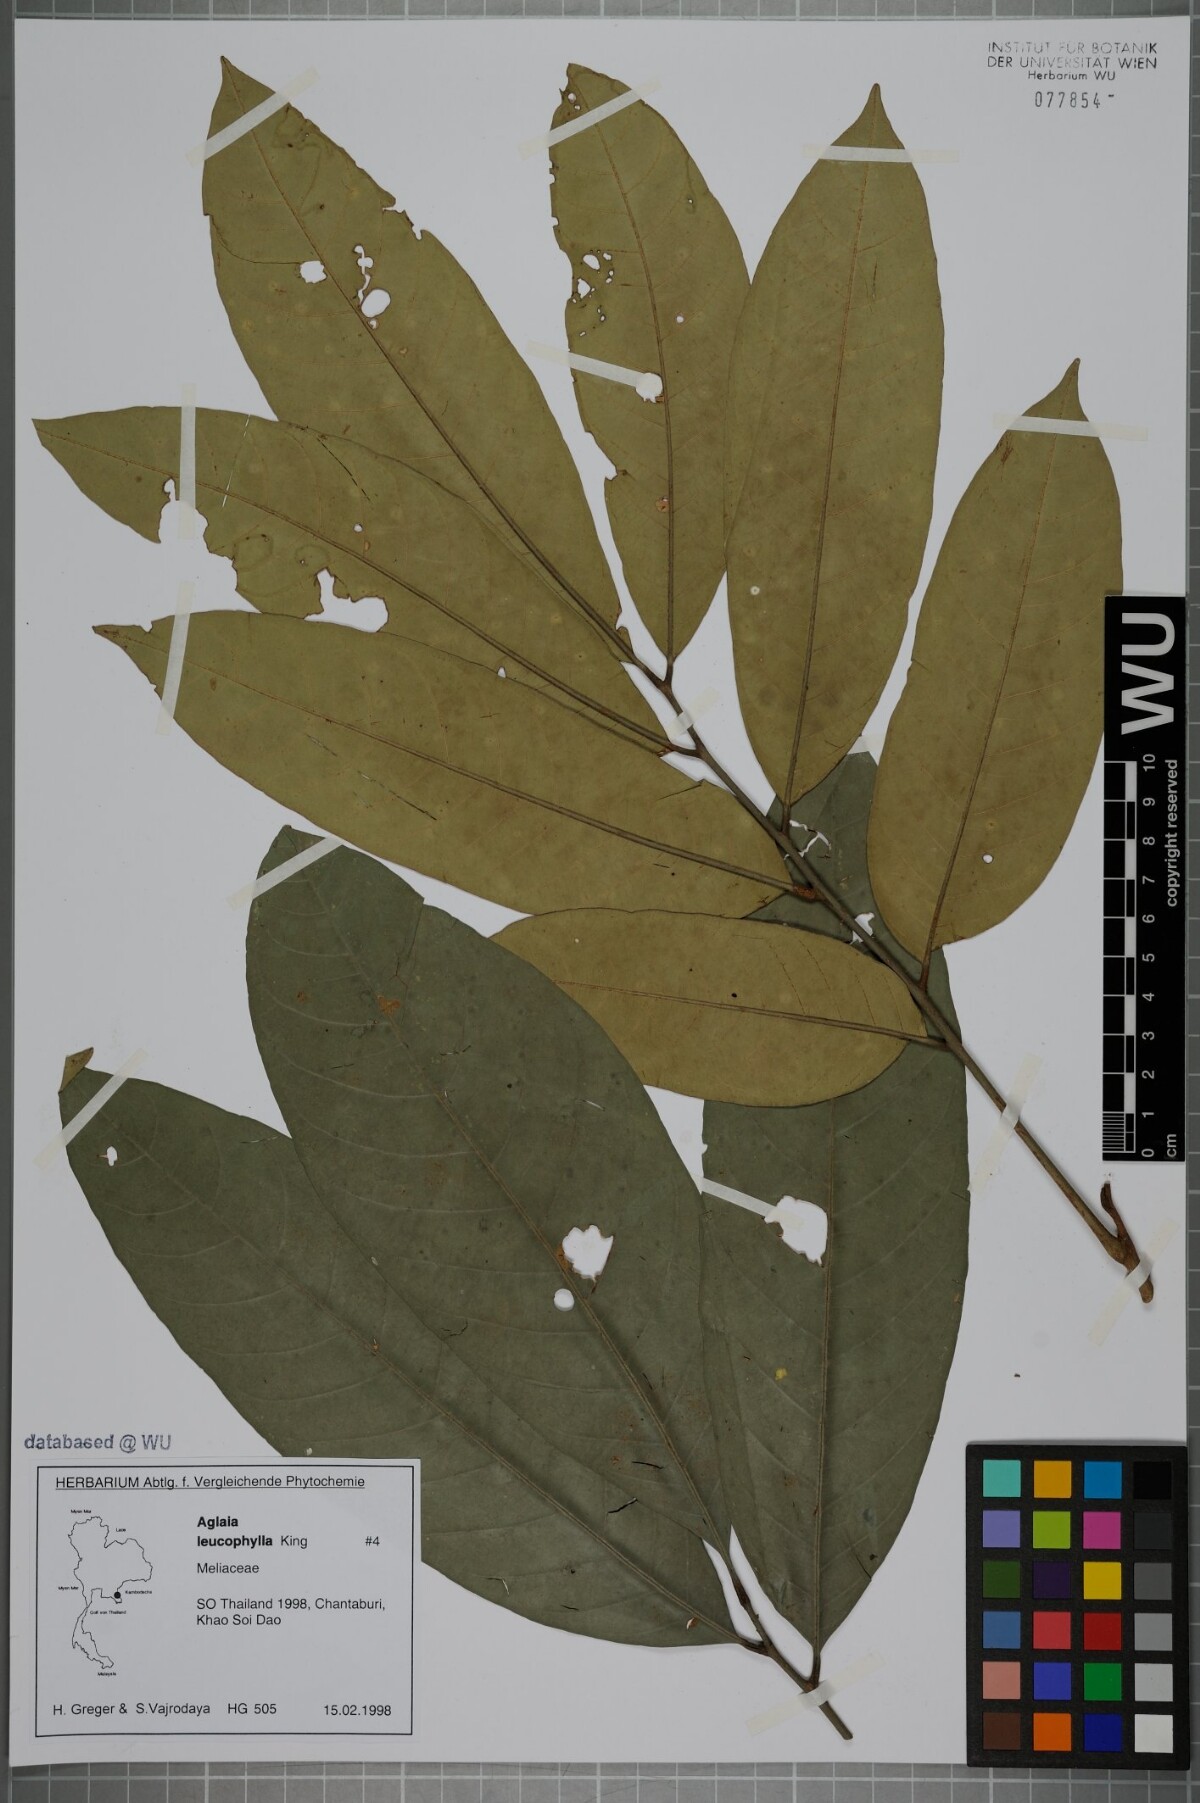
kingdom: Plantae
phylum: Tracheophyta
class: Magnoliopsida
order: Sapindales
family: Meliaceae
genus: Aglaia
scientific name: Aglaia leucophylla
